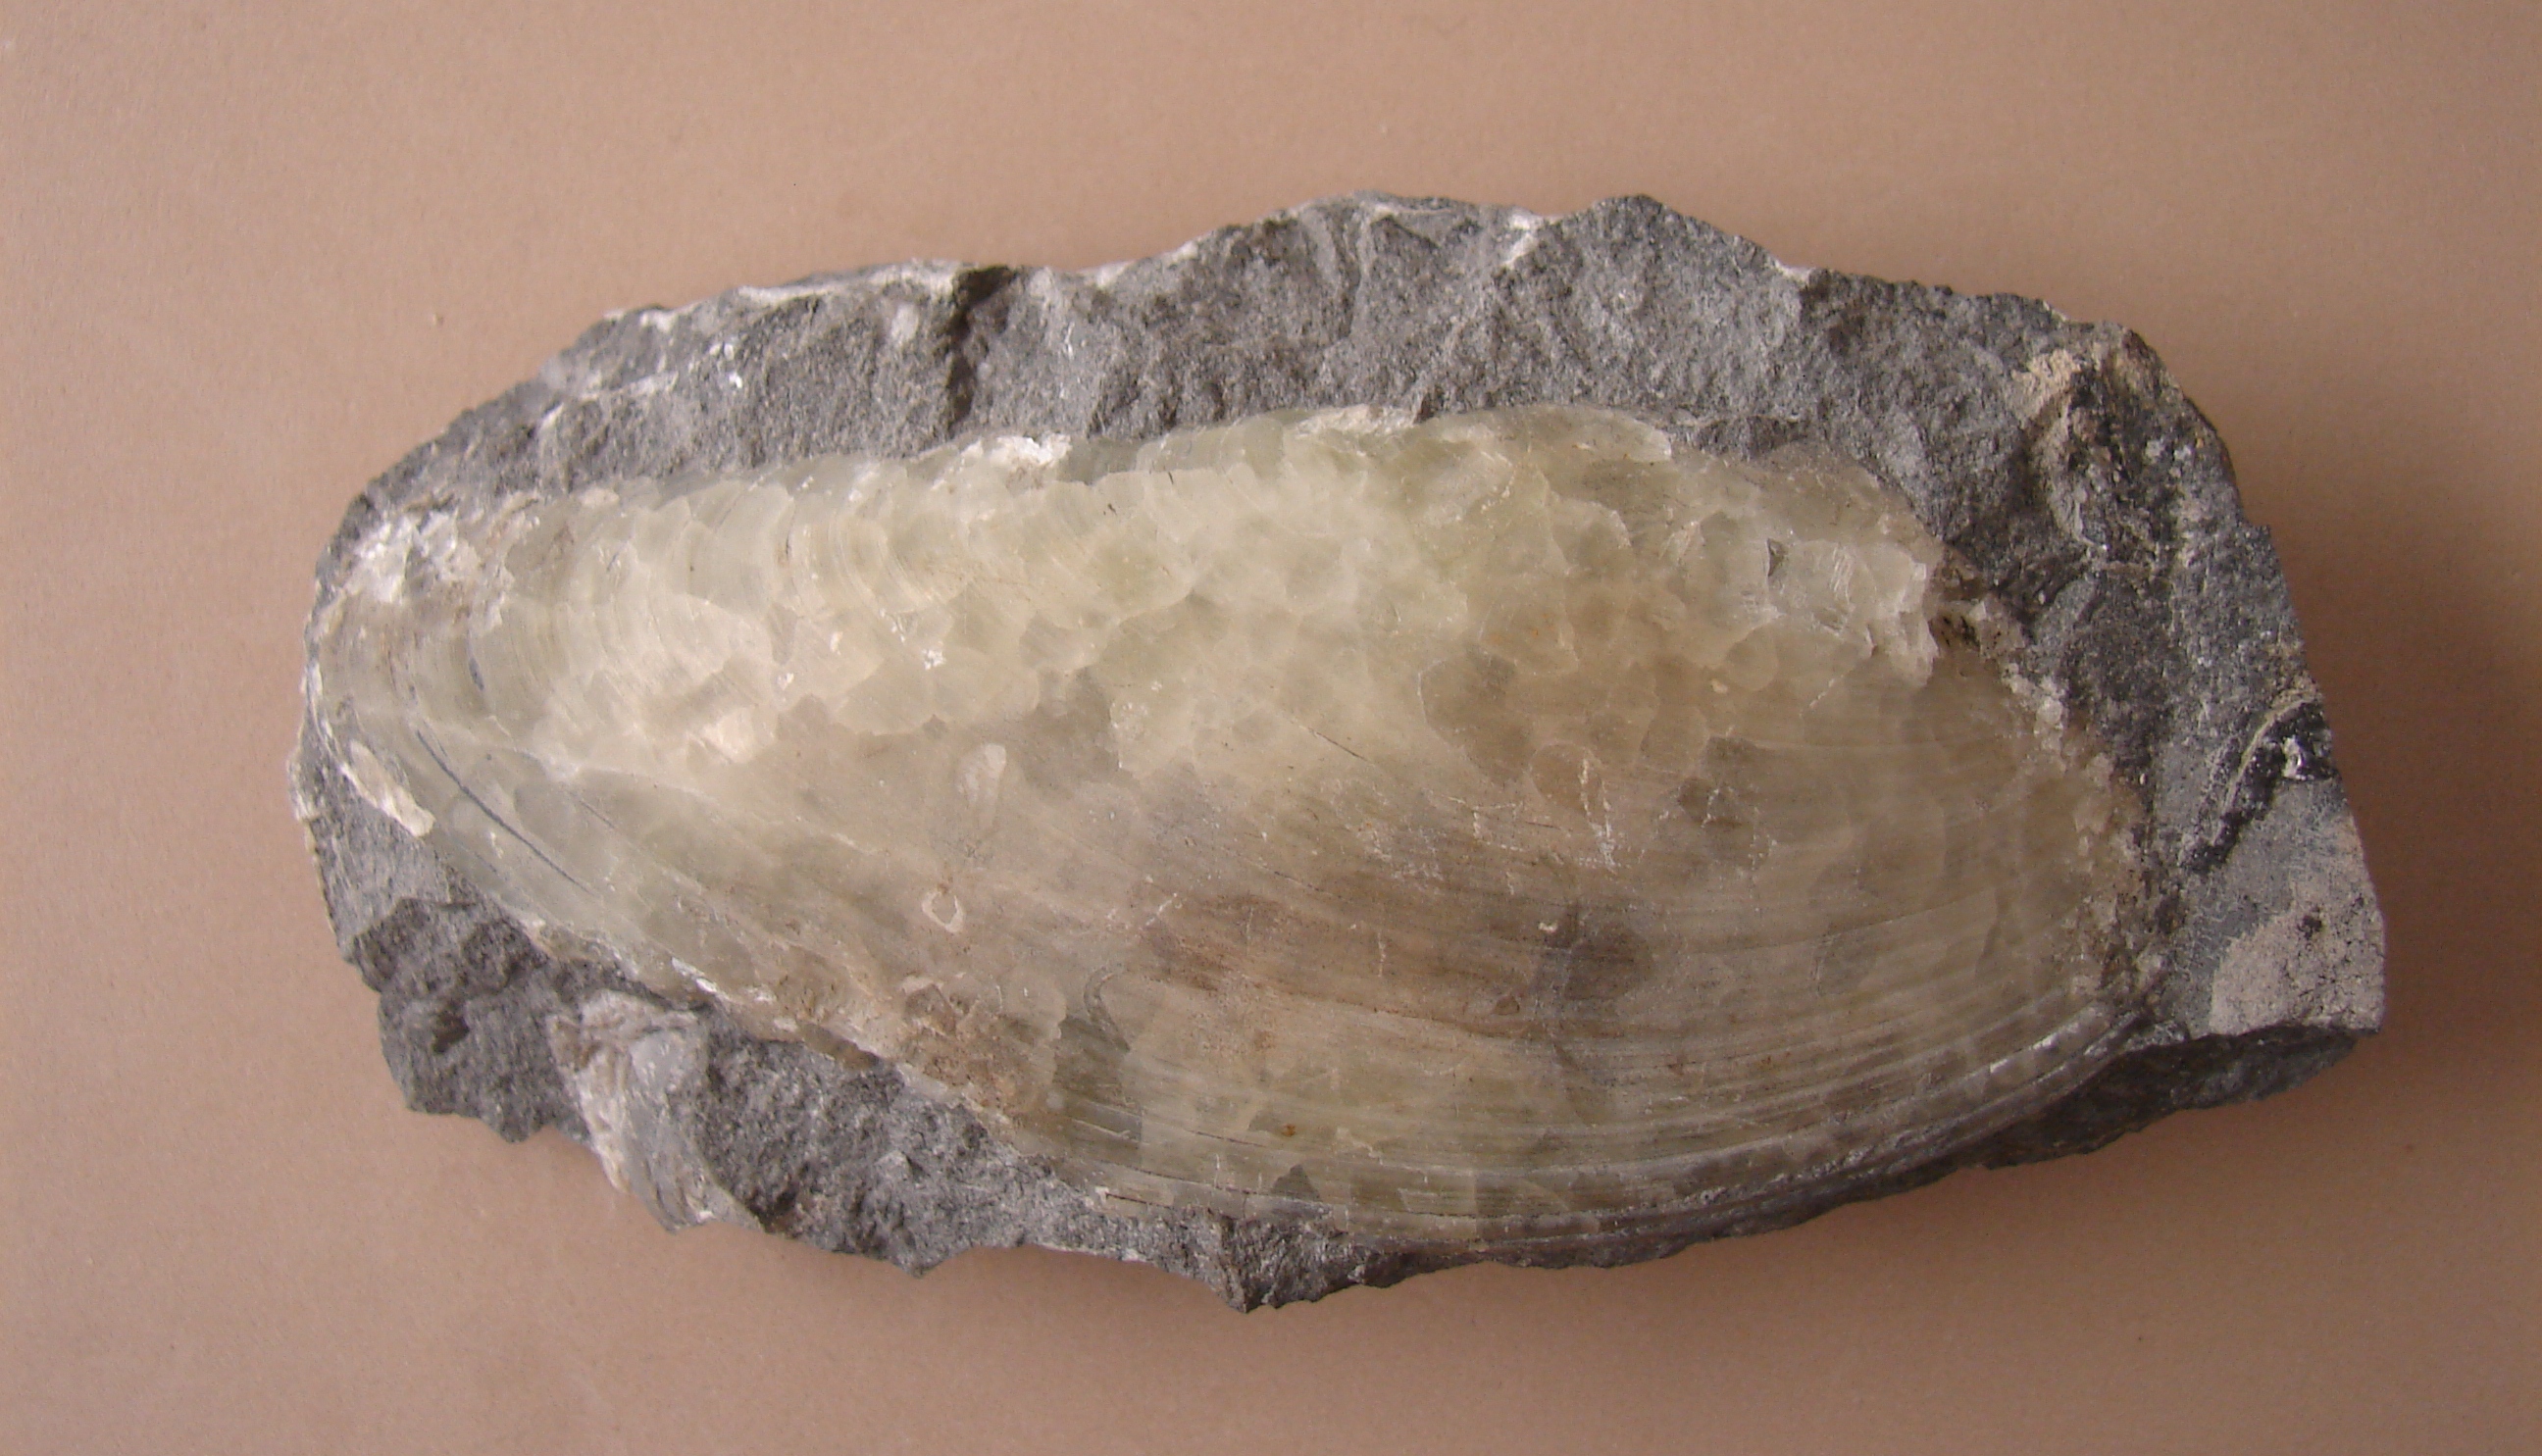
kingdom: Animalia
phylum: Mollusca
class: Bivalvia
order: Myida
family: Pleuromyidae
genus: Pleuromya
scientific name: Pleuromya
